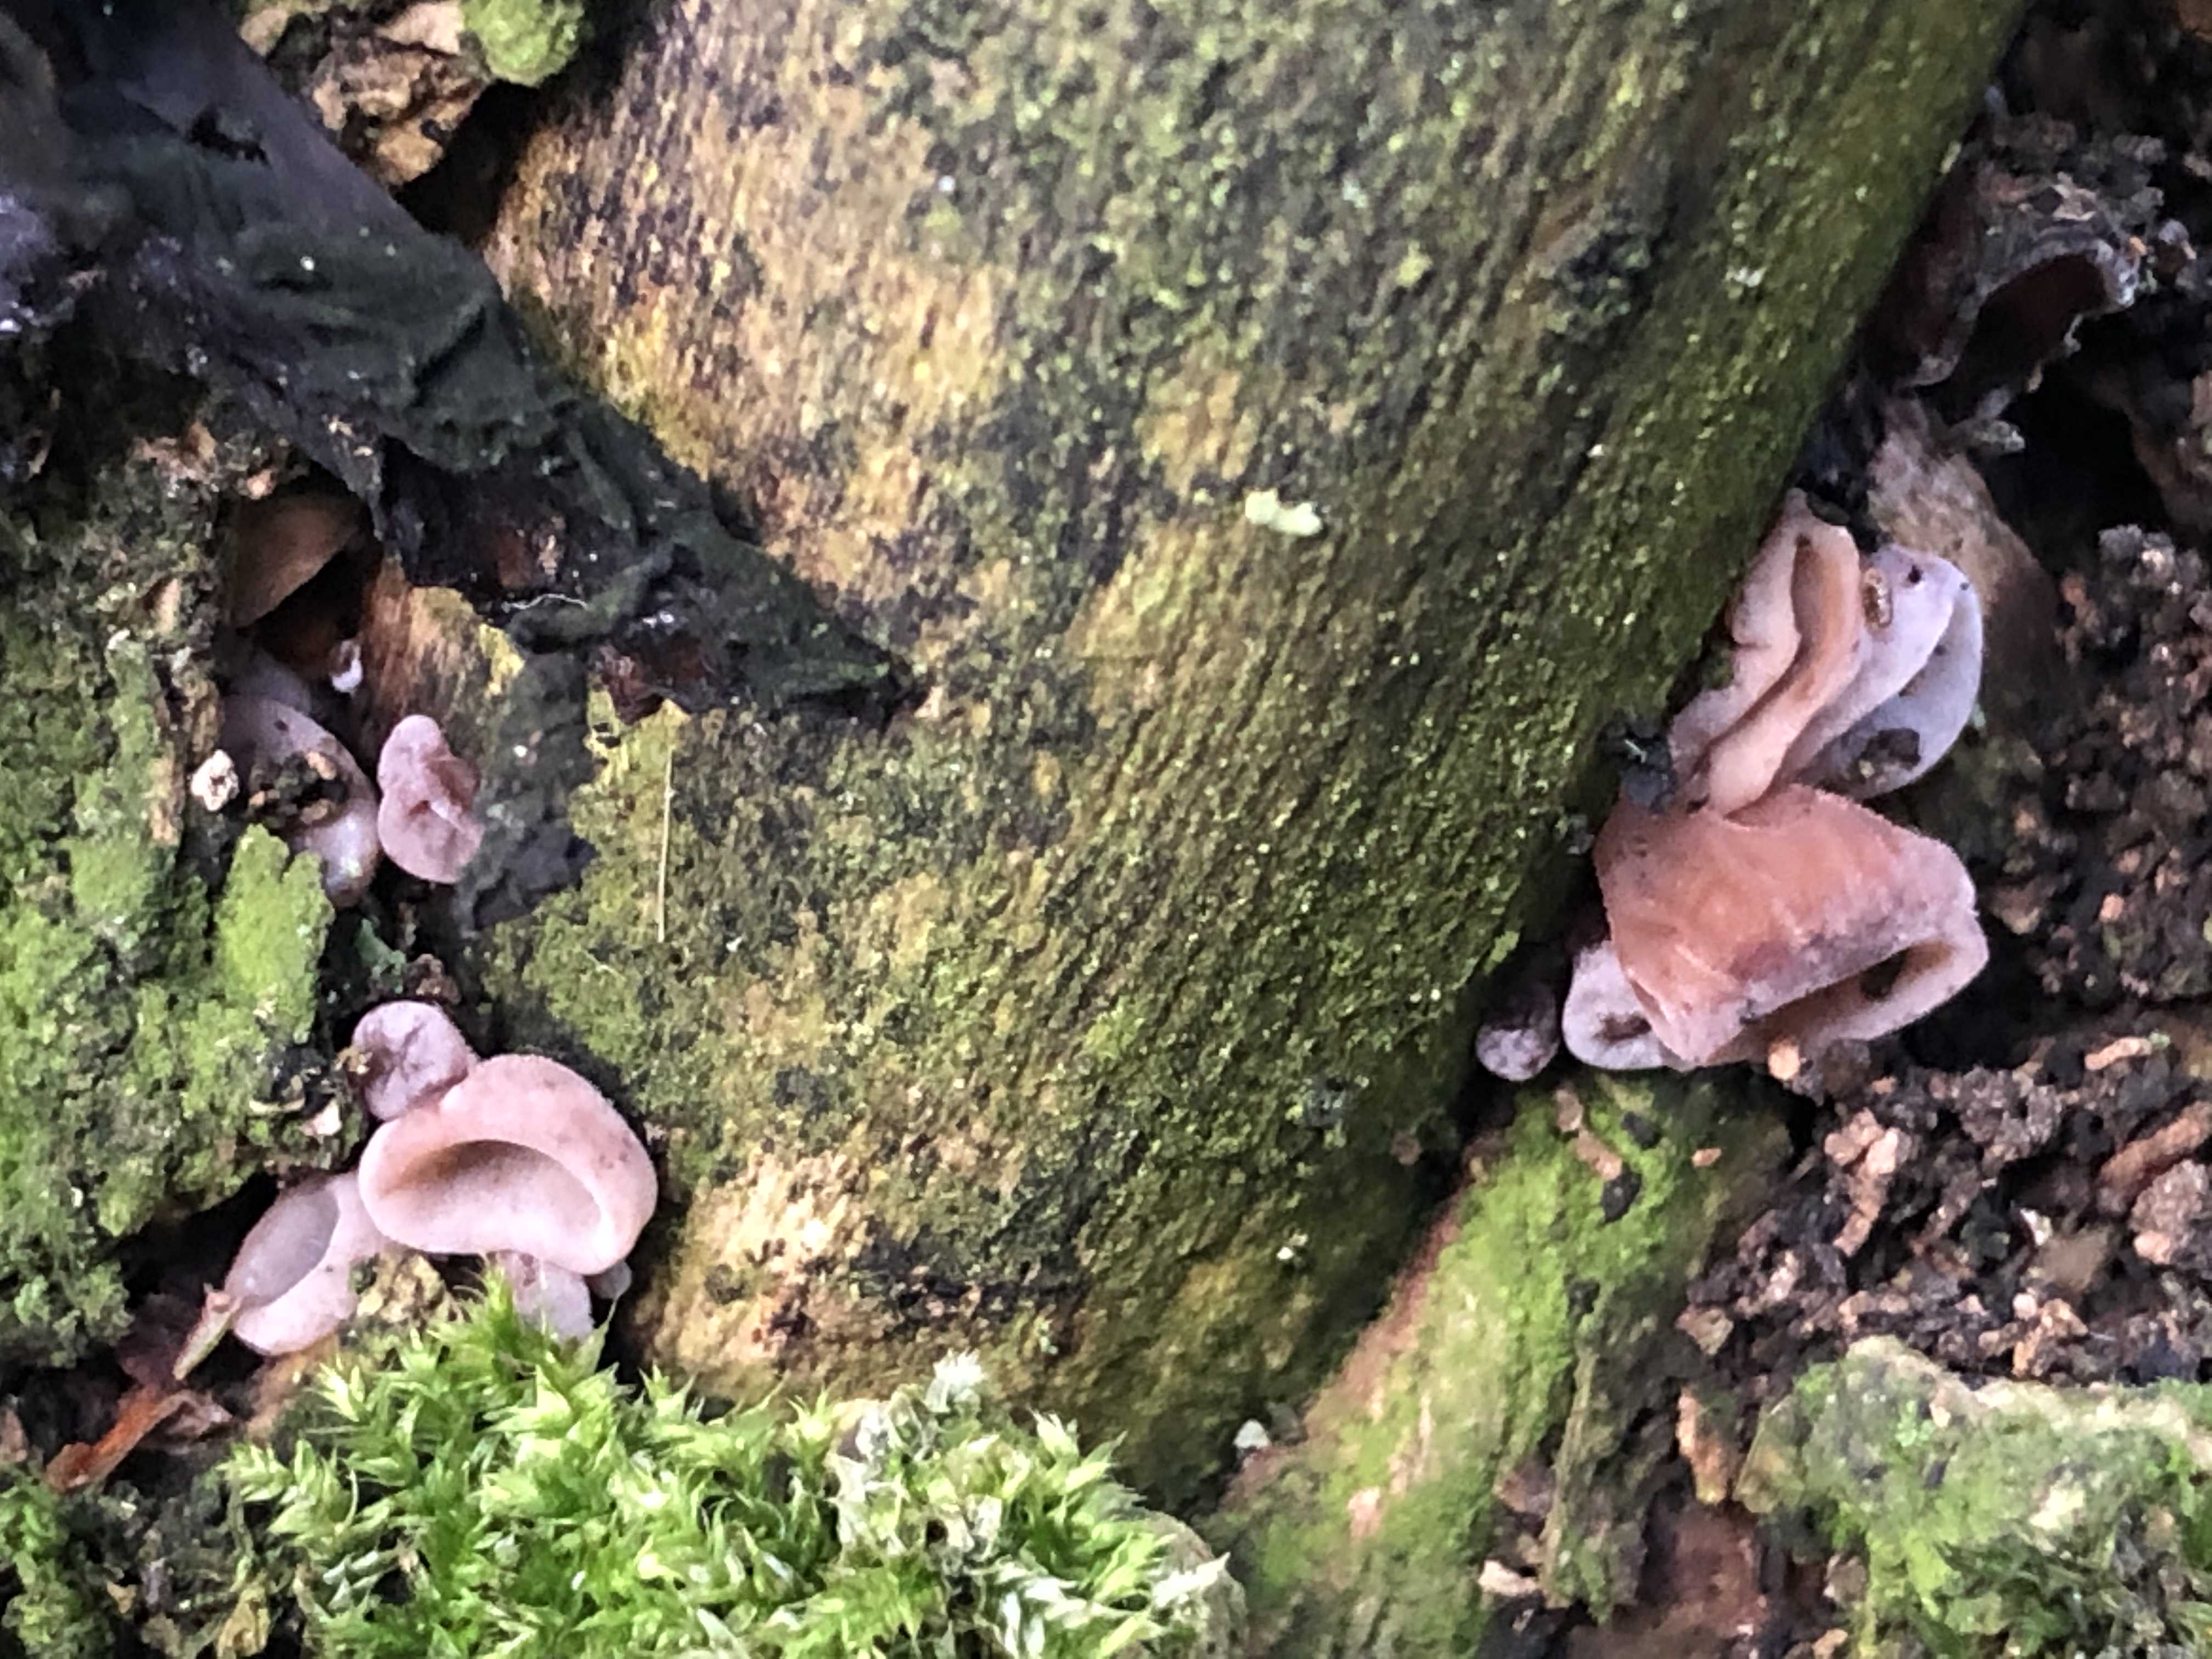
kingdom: Fungi
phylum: Basidiomycota
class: Agaricomycetes
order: Auriculariales
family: Auriculariaceae
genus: Auricularia
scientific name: Auricularia auricula-judae
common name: almindelig judasøre
